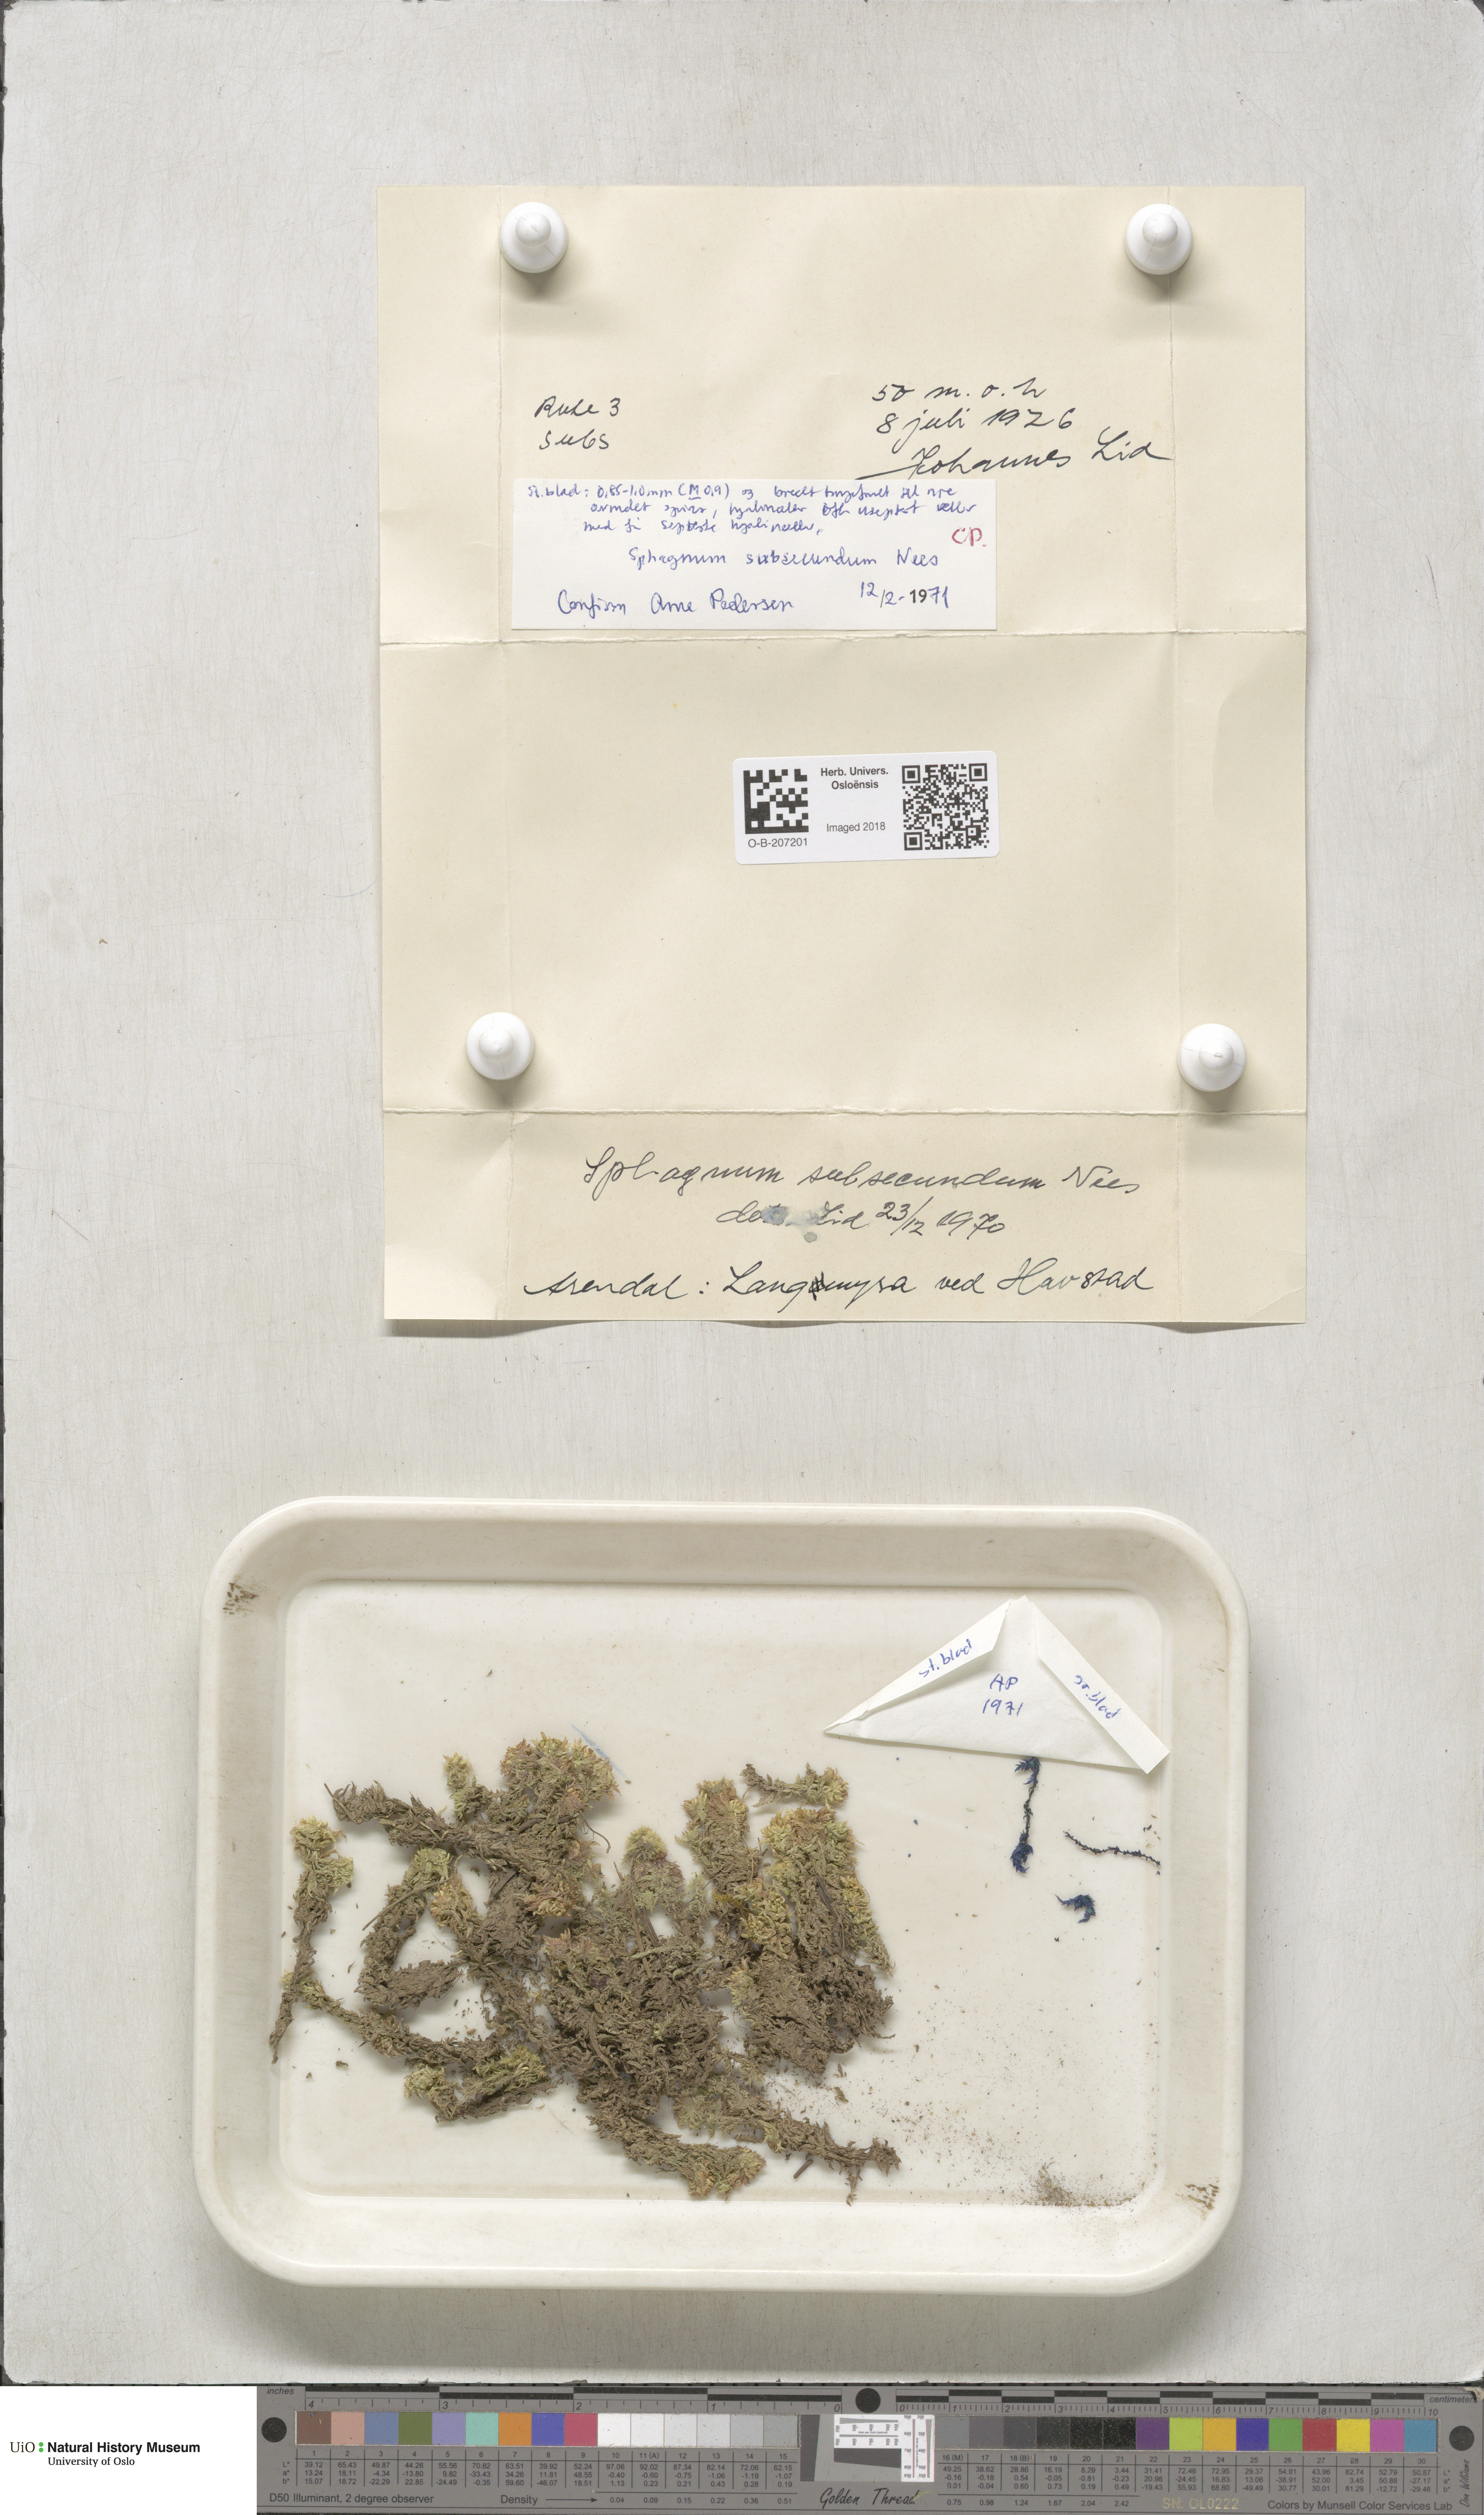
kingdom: Plantae
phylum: Bryophyta
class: Sphagnopsida
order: Sphagnales
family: Sphagnaceae
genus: Sphagnum
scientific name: Sphagnum subsecundum
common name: Orange peat moss
